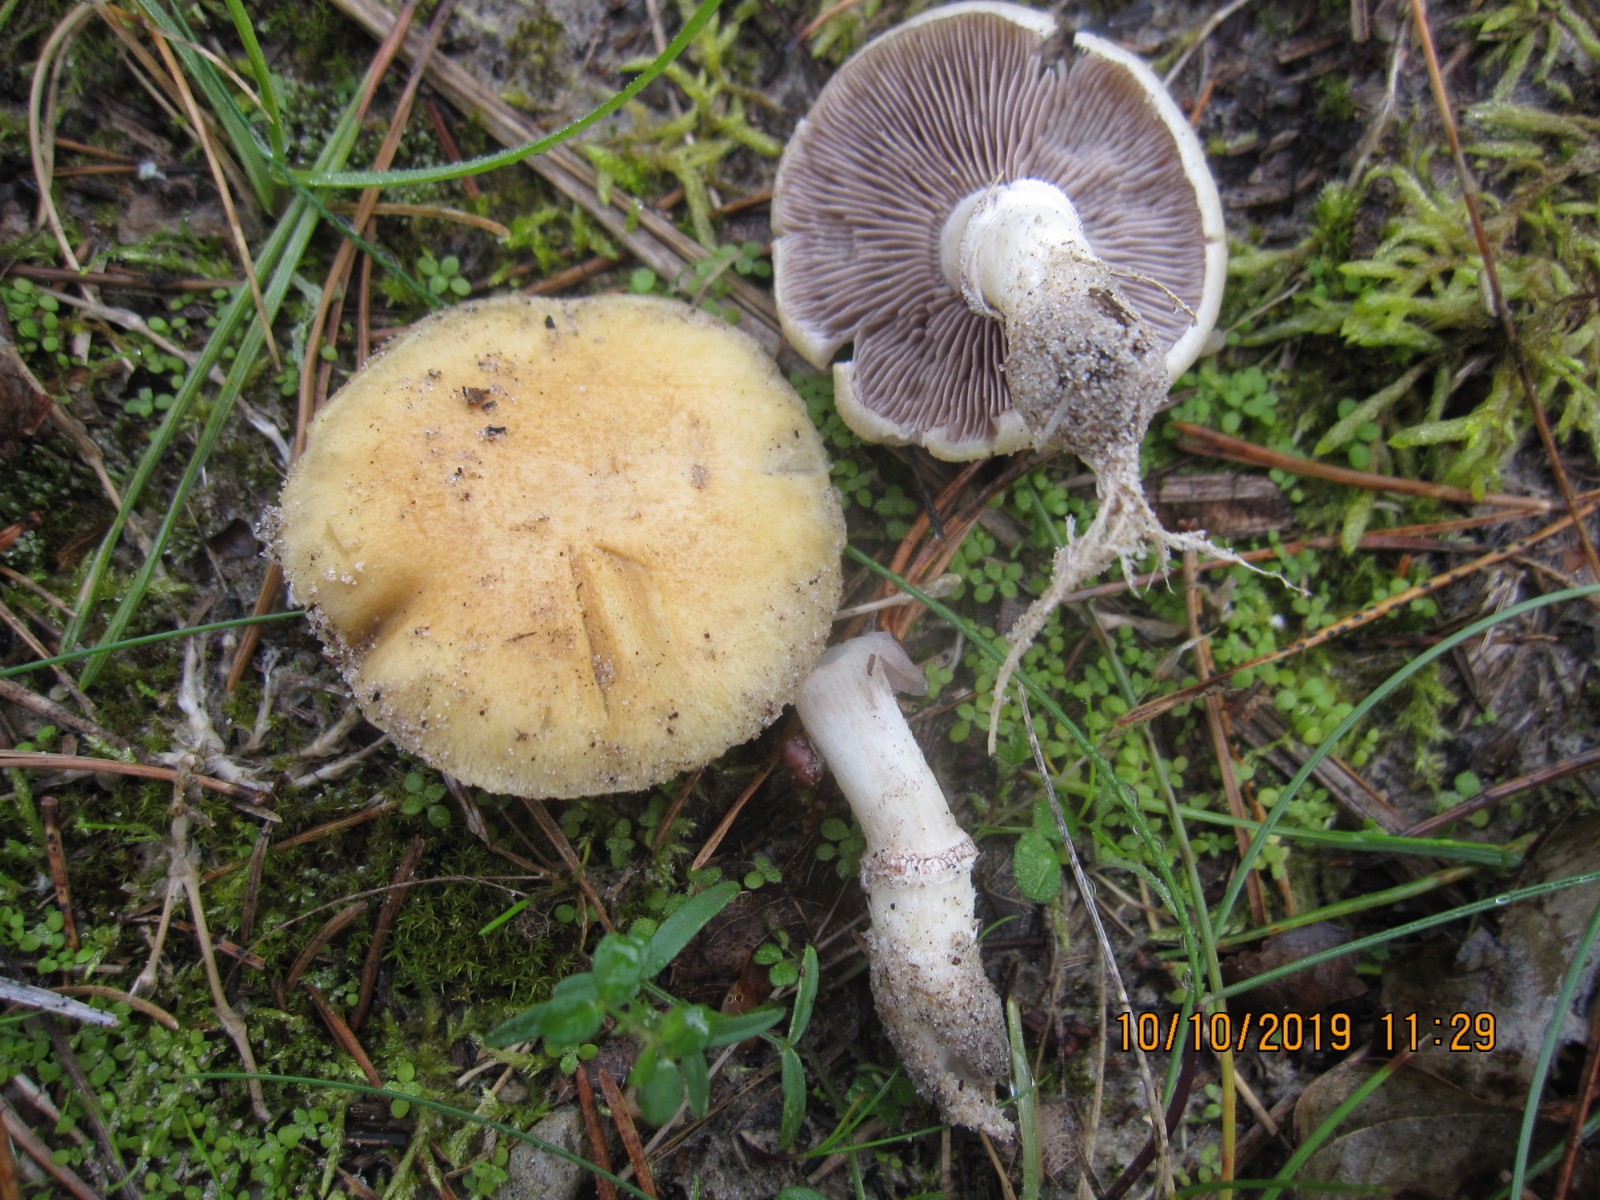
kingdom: Fungi
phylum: Basidiomycota
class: Agaricomycetes
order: Agaricales
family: Hymenogastraceae
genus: Psilocybe
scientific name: Psilocybe coronilla
